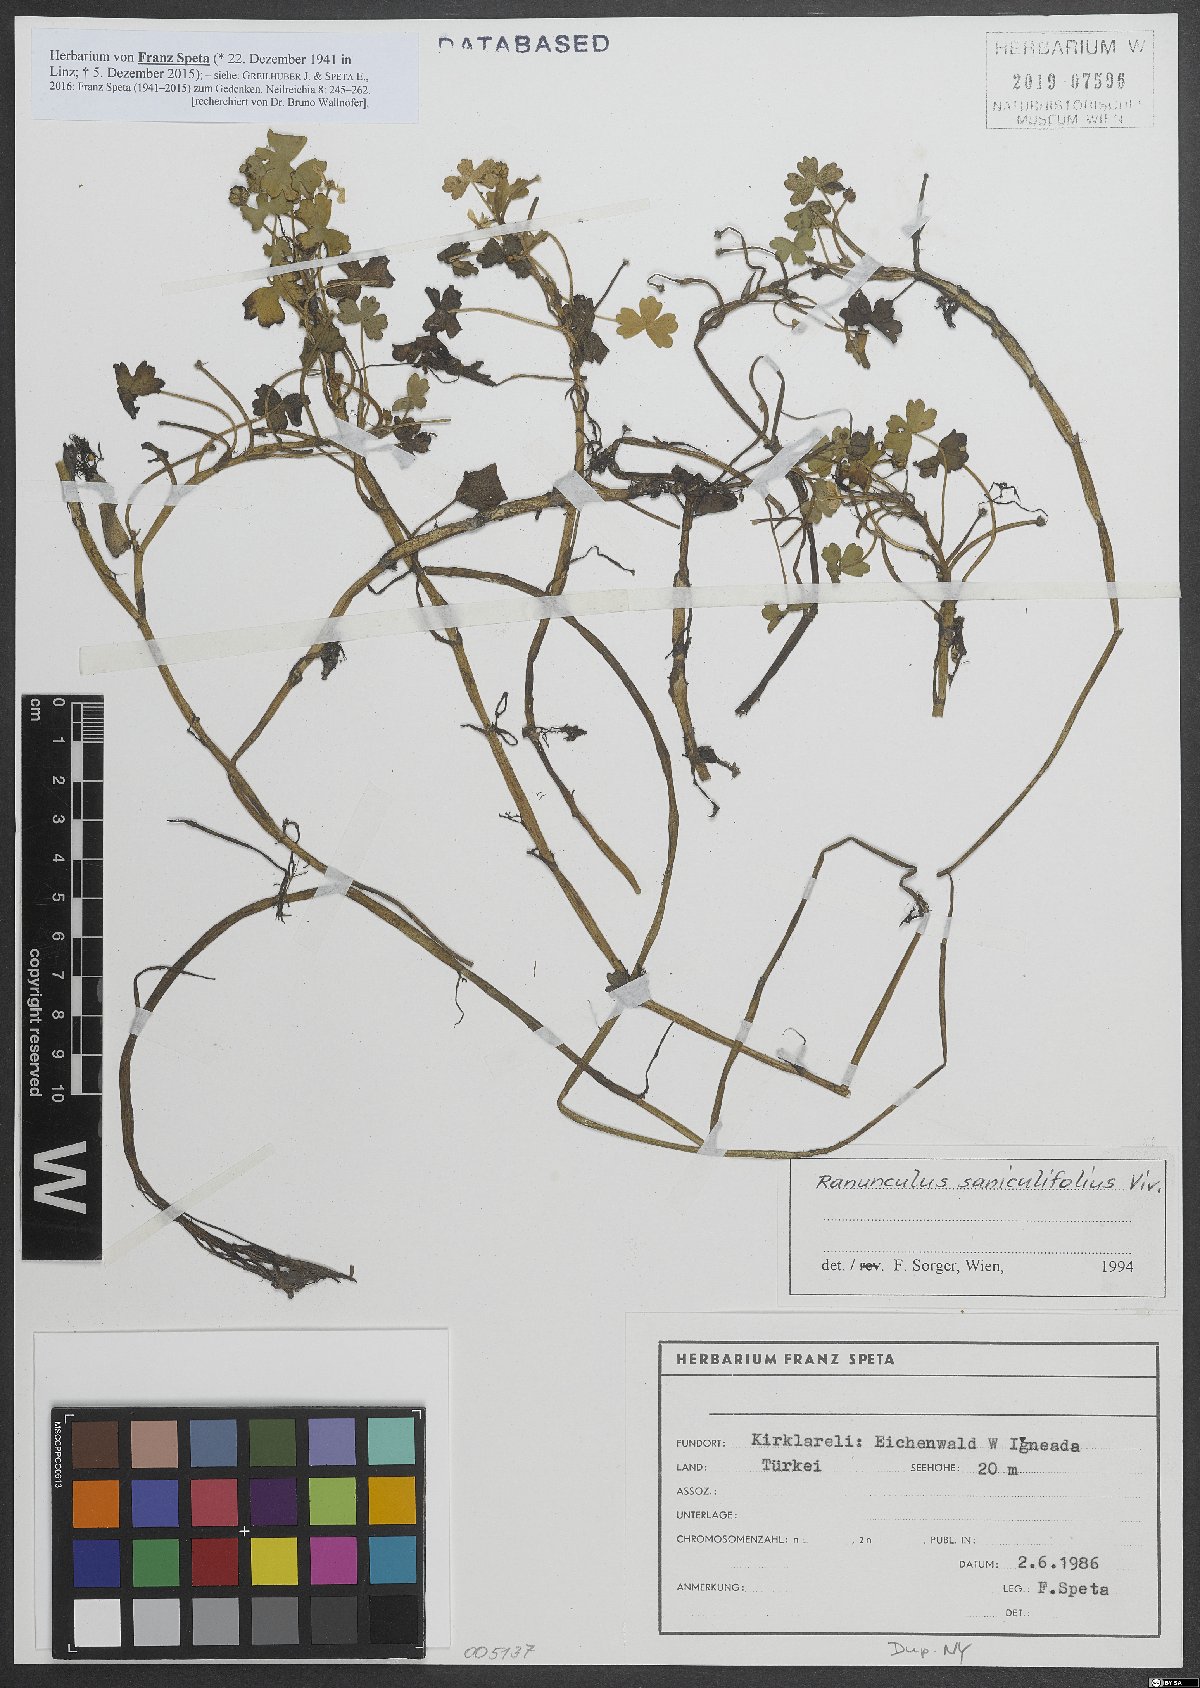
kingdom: Plantae
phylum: Tracheophyta
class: Magnoliopsida
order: Ranunculales
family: Ranunculaceae
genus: Ranunculus
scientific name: Ranunculus peltatus
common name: Pond water-crowfoot
